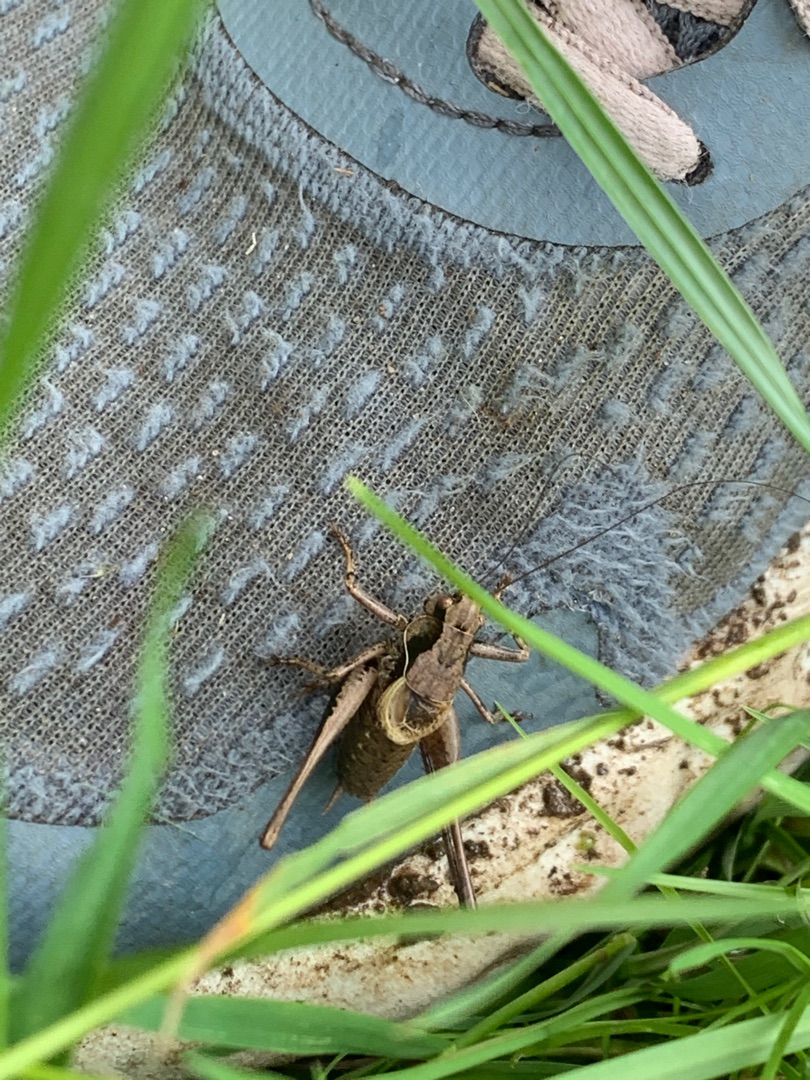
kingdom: Animalia
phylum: Arthropoda
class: Insecta
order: Orthoptera
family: Tettigoniidae
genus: Pholidoptera
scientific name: Pholidoptera griseoaptera
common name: Buskgræshoppe
